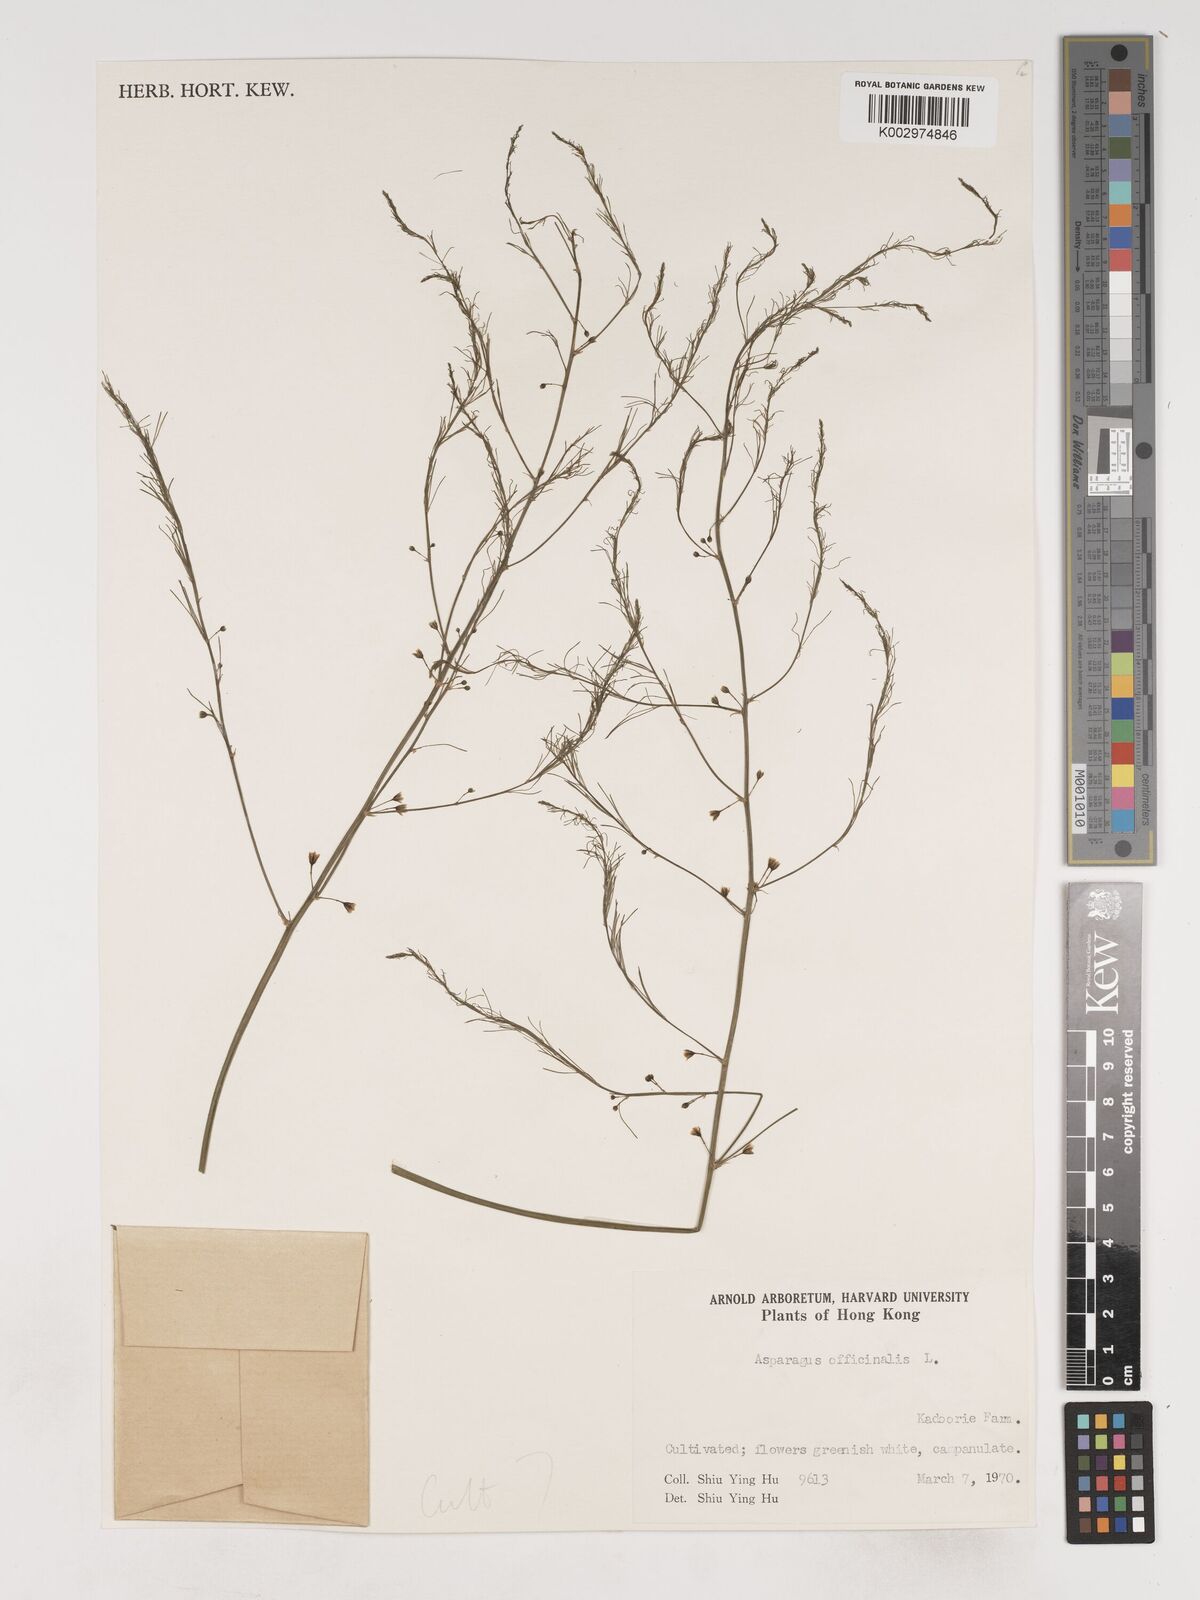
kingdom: Plantae
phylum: Tracheophyta
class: Liliopsida
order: Asparagales
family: Asparagaceae
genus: Asparagus
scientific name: Asparagus officinalis
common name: Garden asparagus
